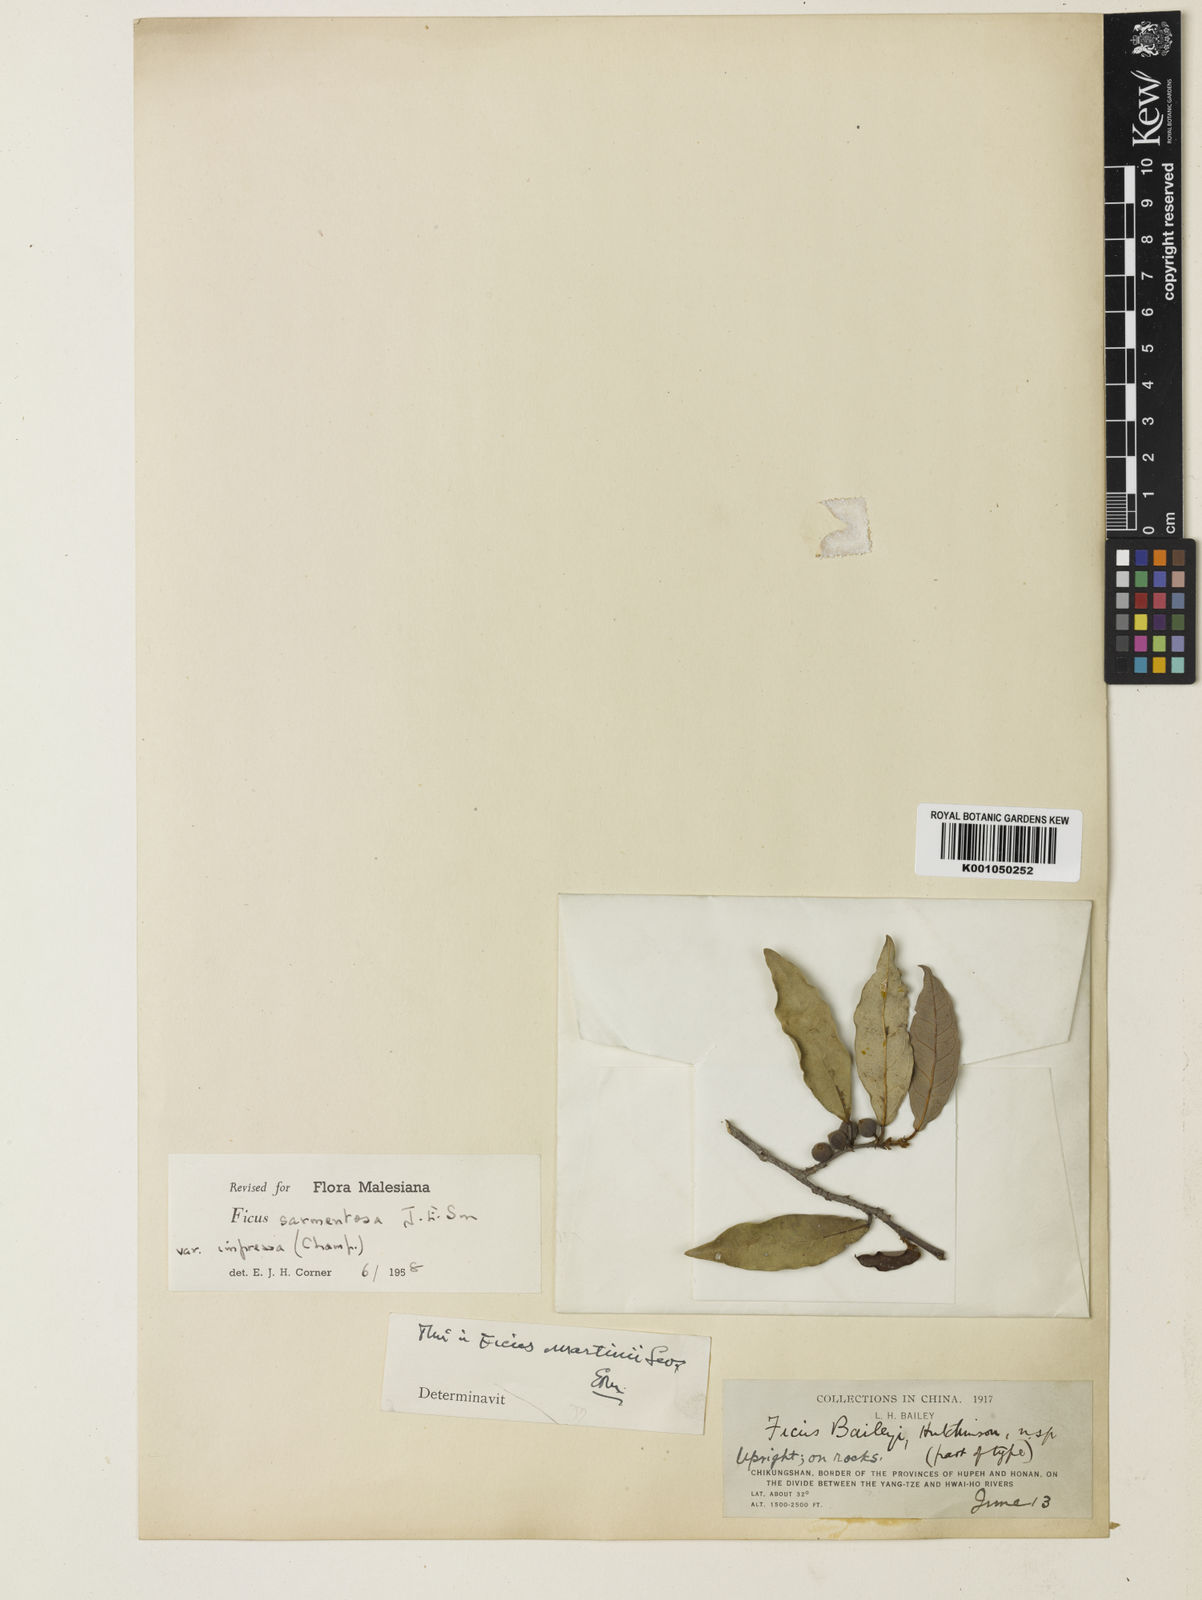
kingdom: Plantae
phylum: Tracheophyta
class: Magnoliopsida
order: Rosales
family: Moraceae
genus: Ficus
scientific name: Ficus sarmentosa
